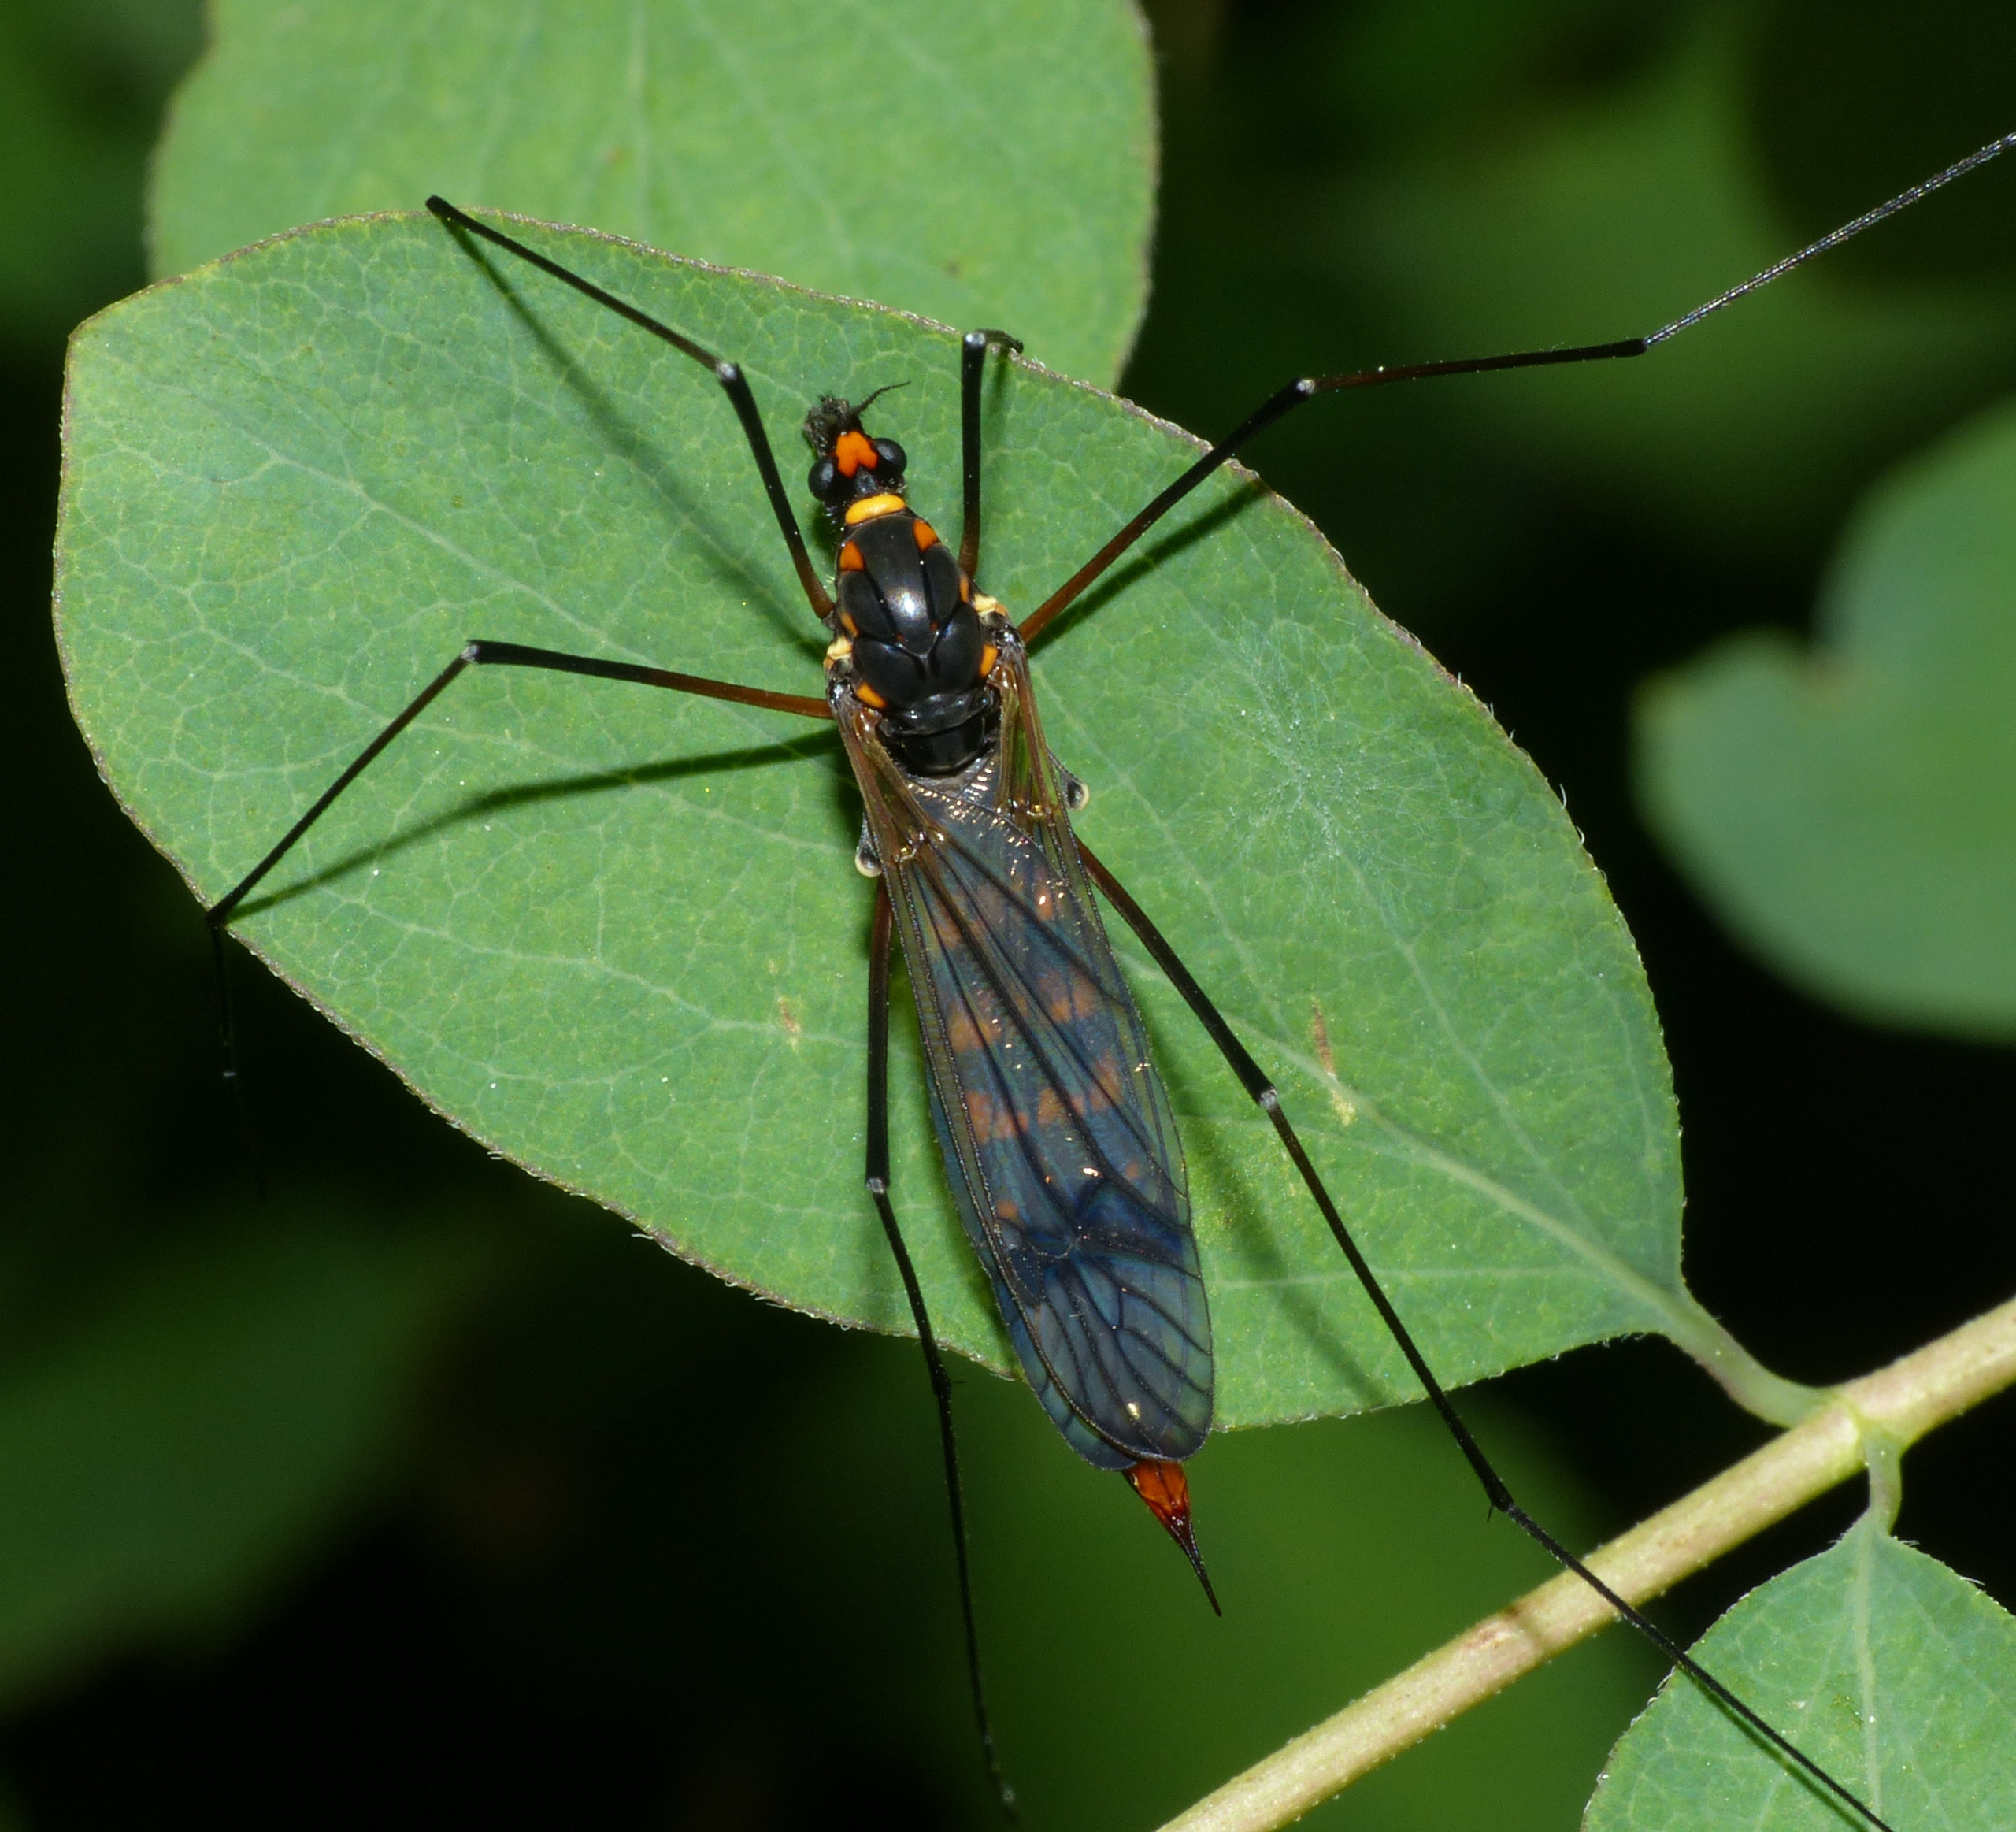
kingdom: Animalia
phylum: Arthropoda
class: Insecta
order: Diptera
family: Tipulidae
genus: Nephrotoma
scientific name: Nephrotoma crocata
